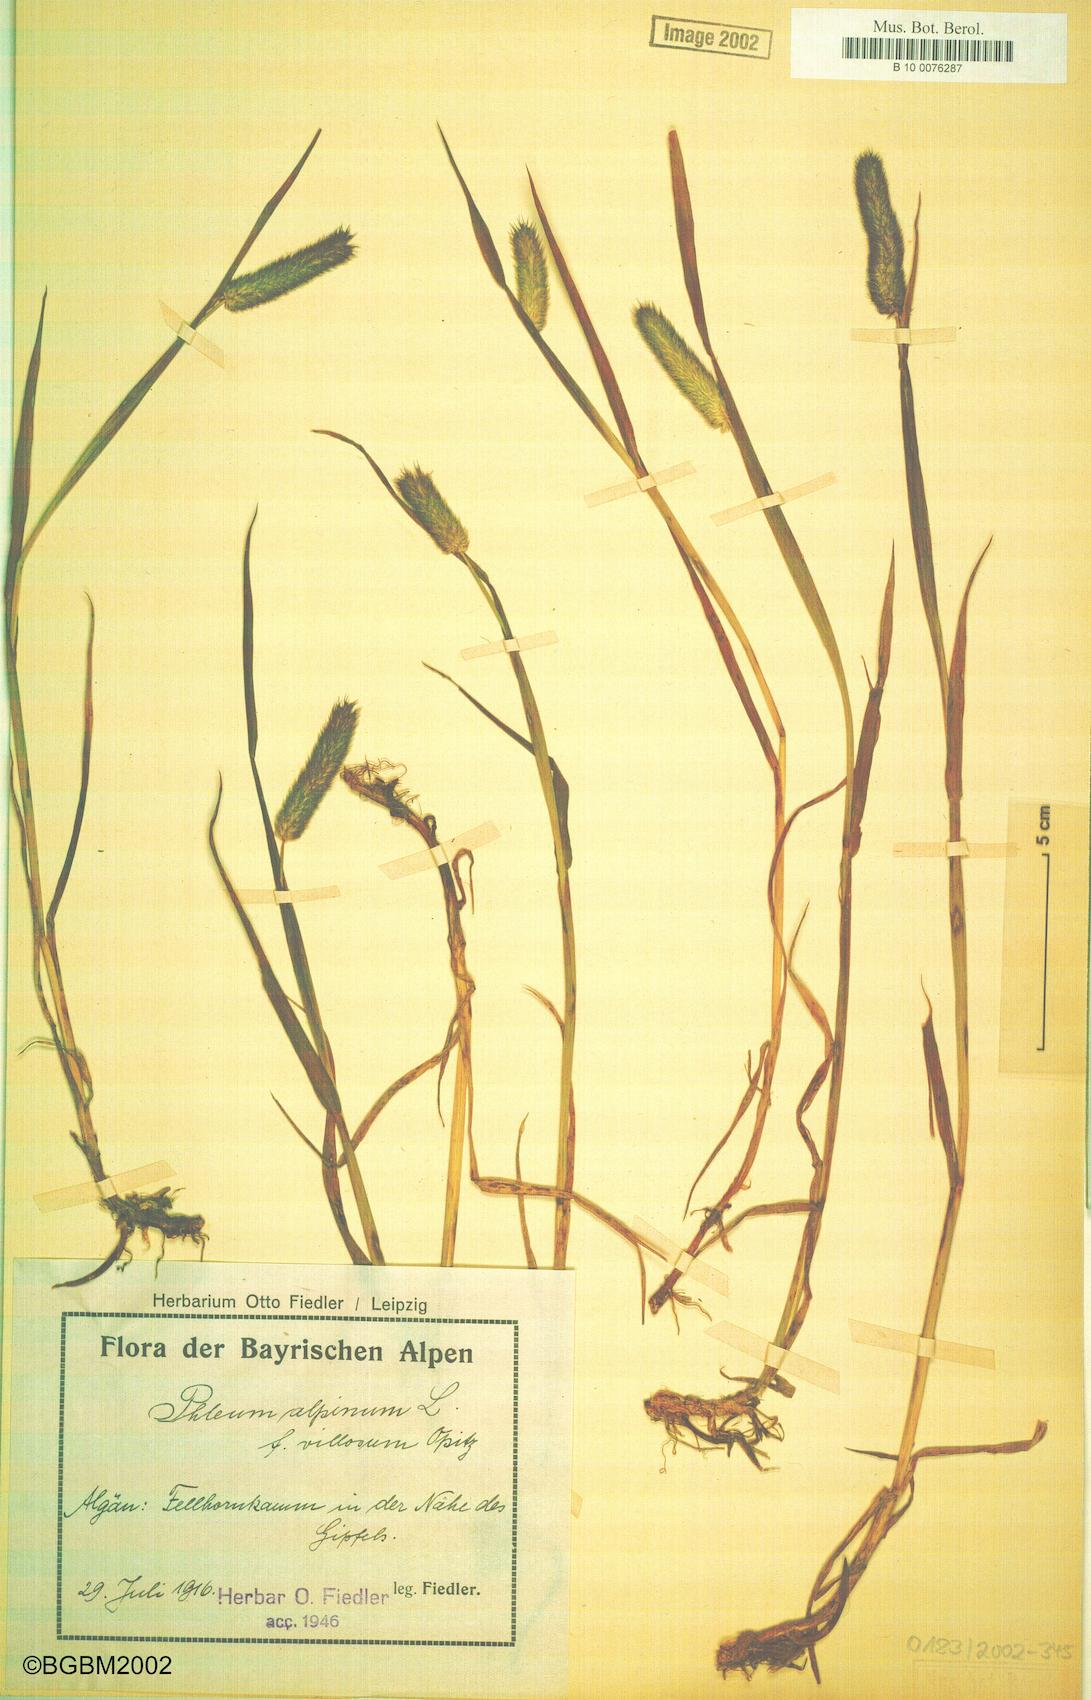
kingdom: Plantae
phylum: Tracheophyta
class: Liliopsida
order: Poales
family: Poaceae
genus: Phleum
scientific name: Phleum alpinum
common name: Alpine cat's-tail
